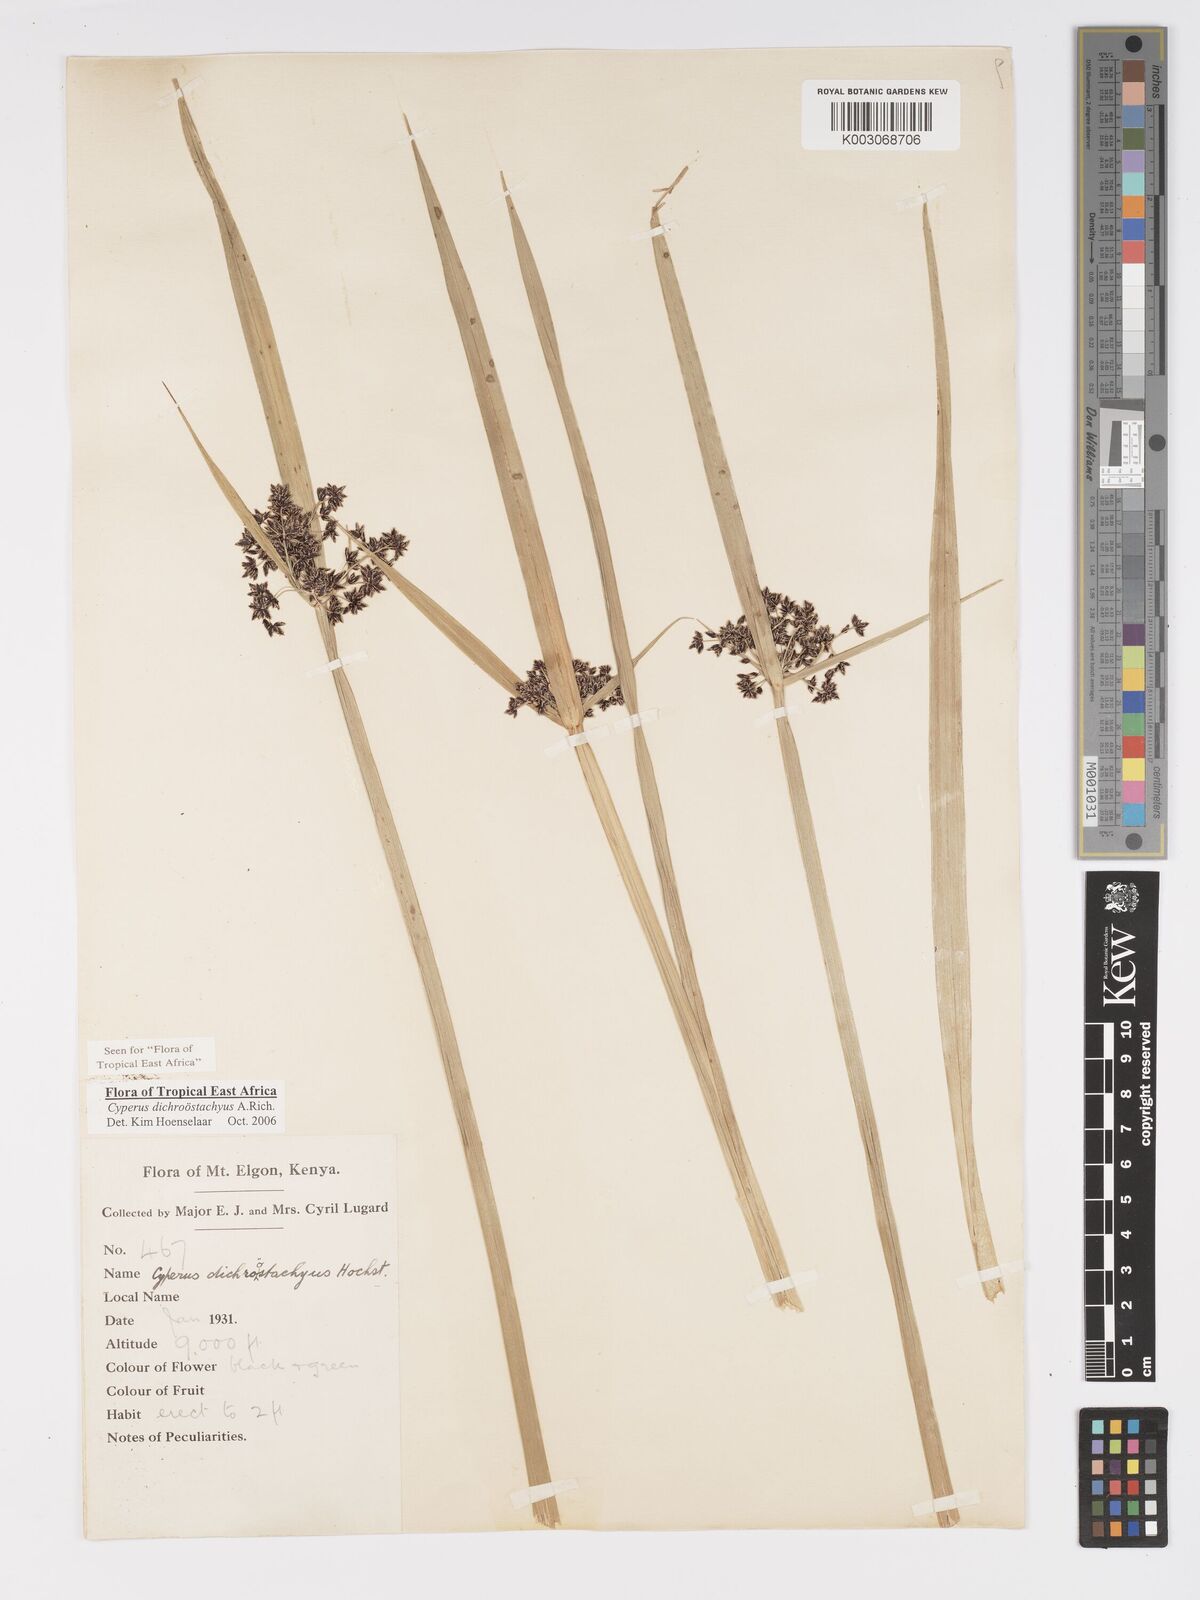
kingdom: Plantae
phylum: Tracheophyta
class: Liliopsida
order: Poales
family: Cyperaceae
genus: Cyperus
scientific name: Cyperus dichrostachyus
